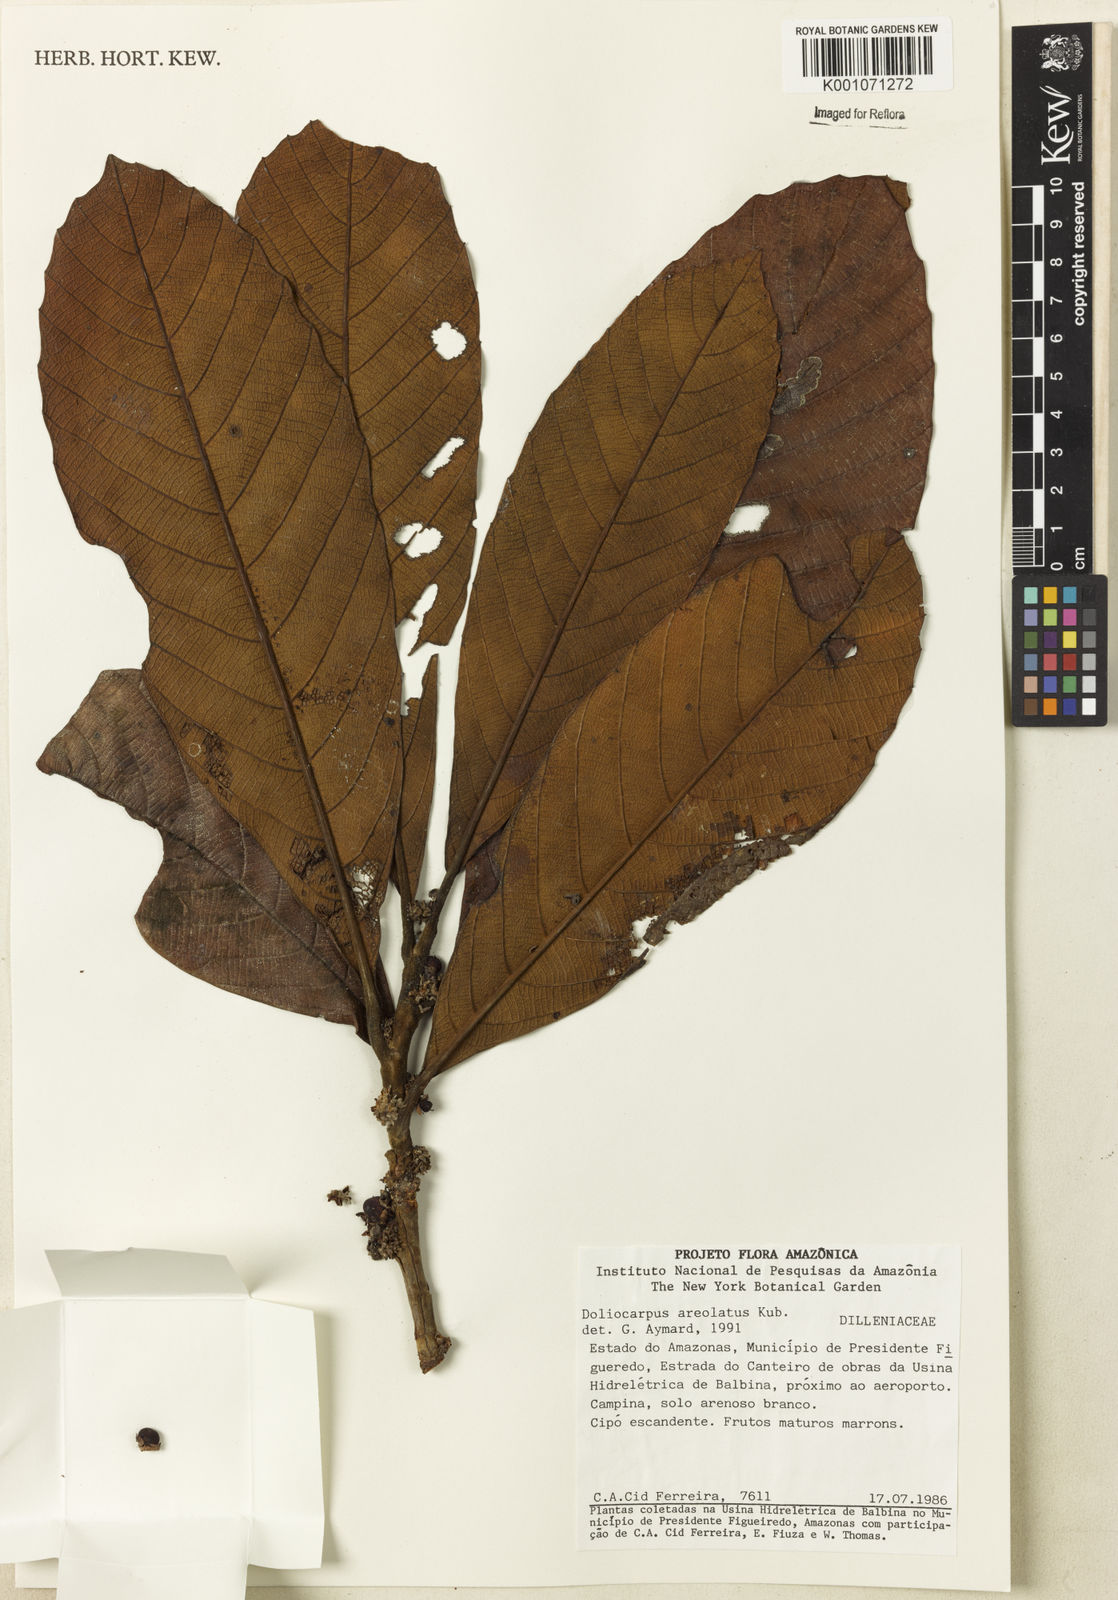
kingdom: Plantae
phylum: Tracheophyta
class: Magnoliopsida
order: Dilleniales
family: Dilleniaceae
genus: Doliocarpus
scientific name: Doliocarpus areolatus
